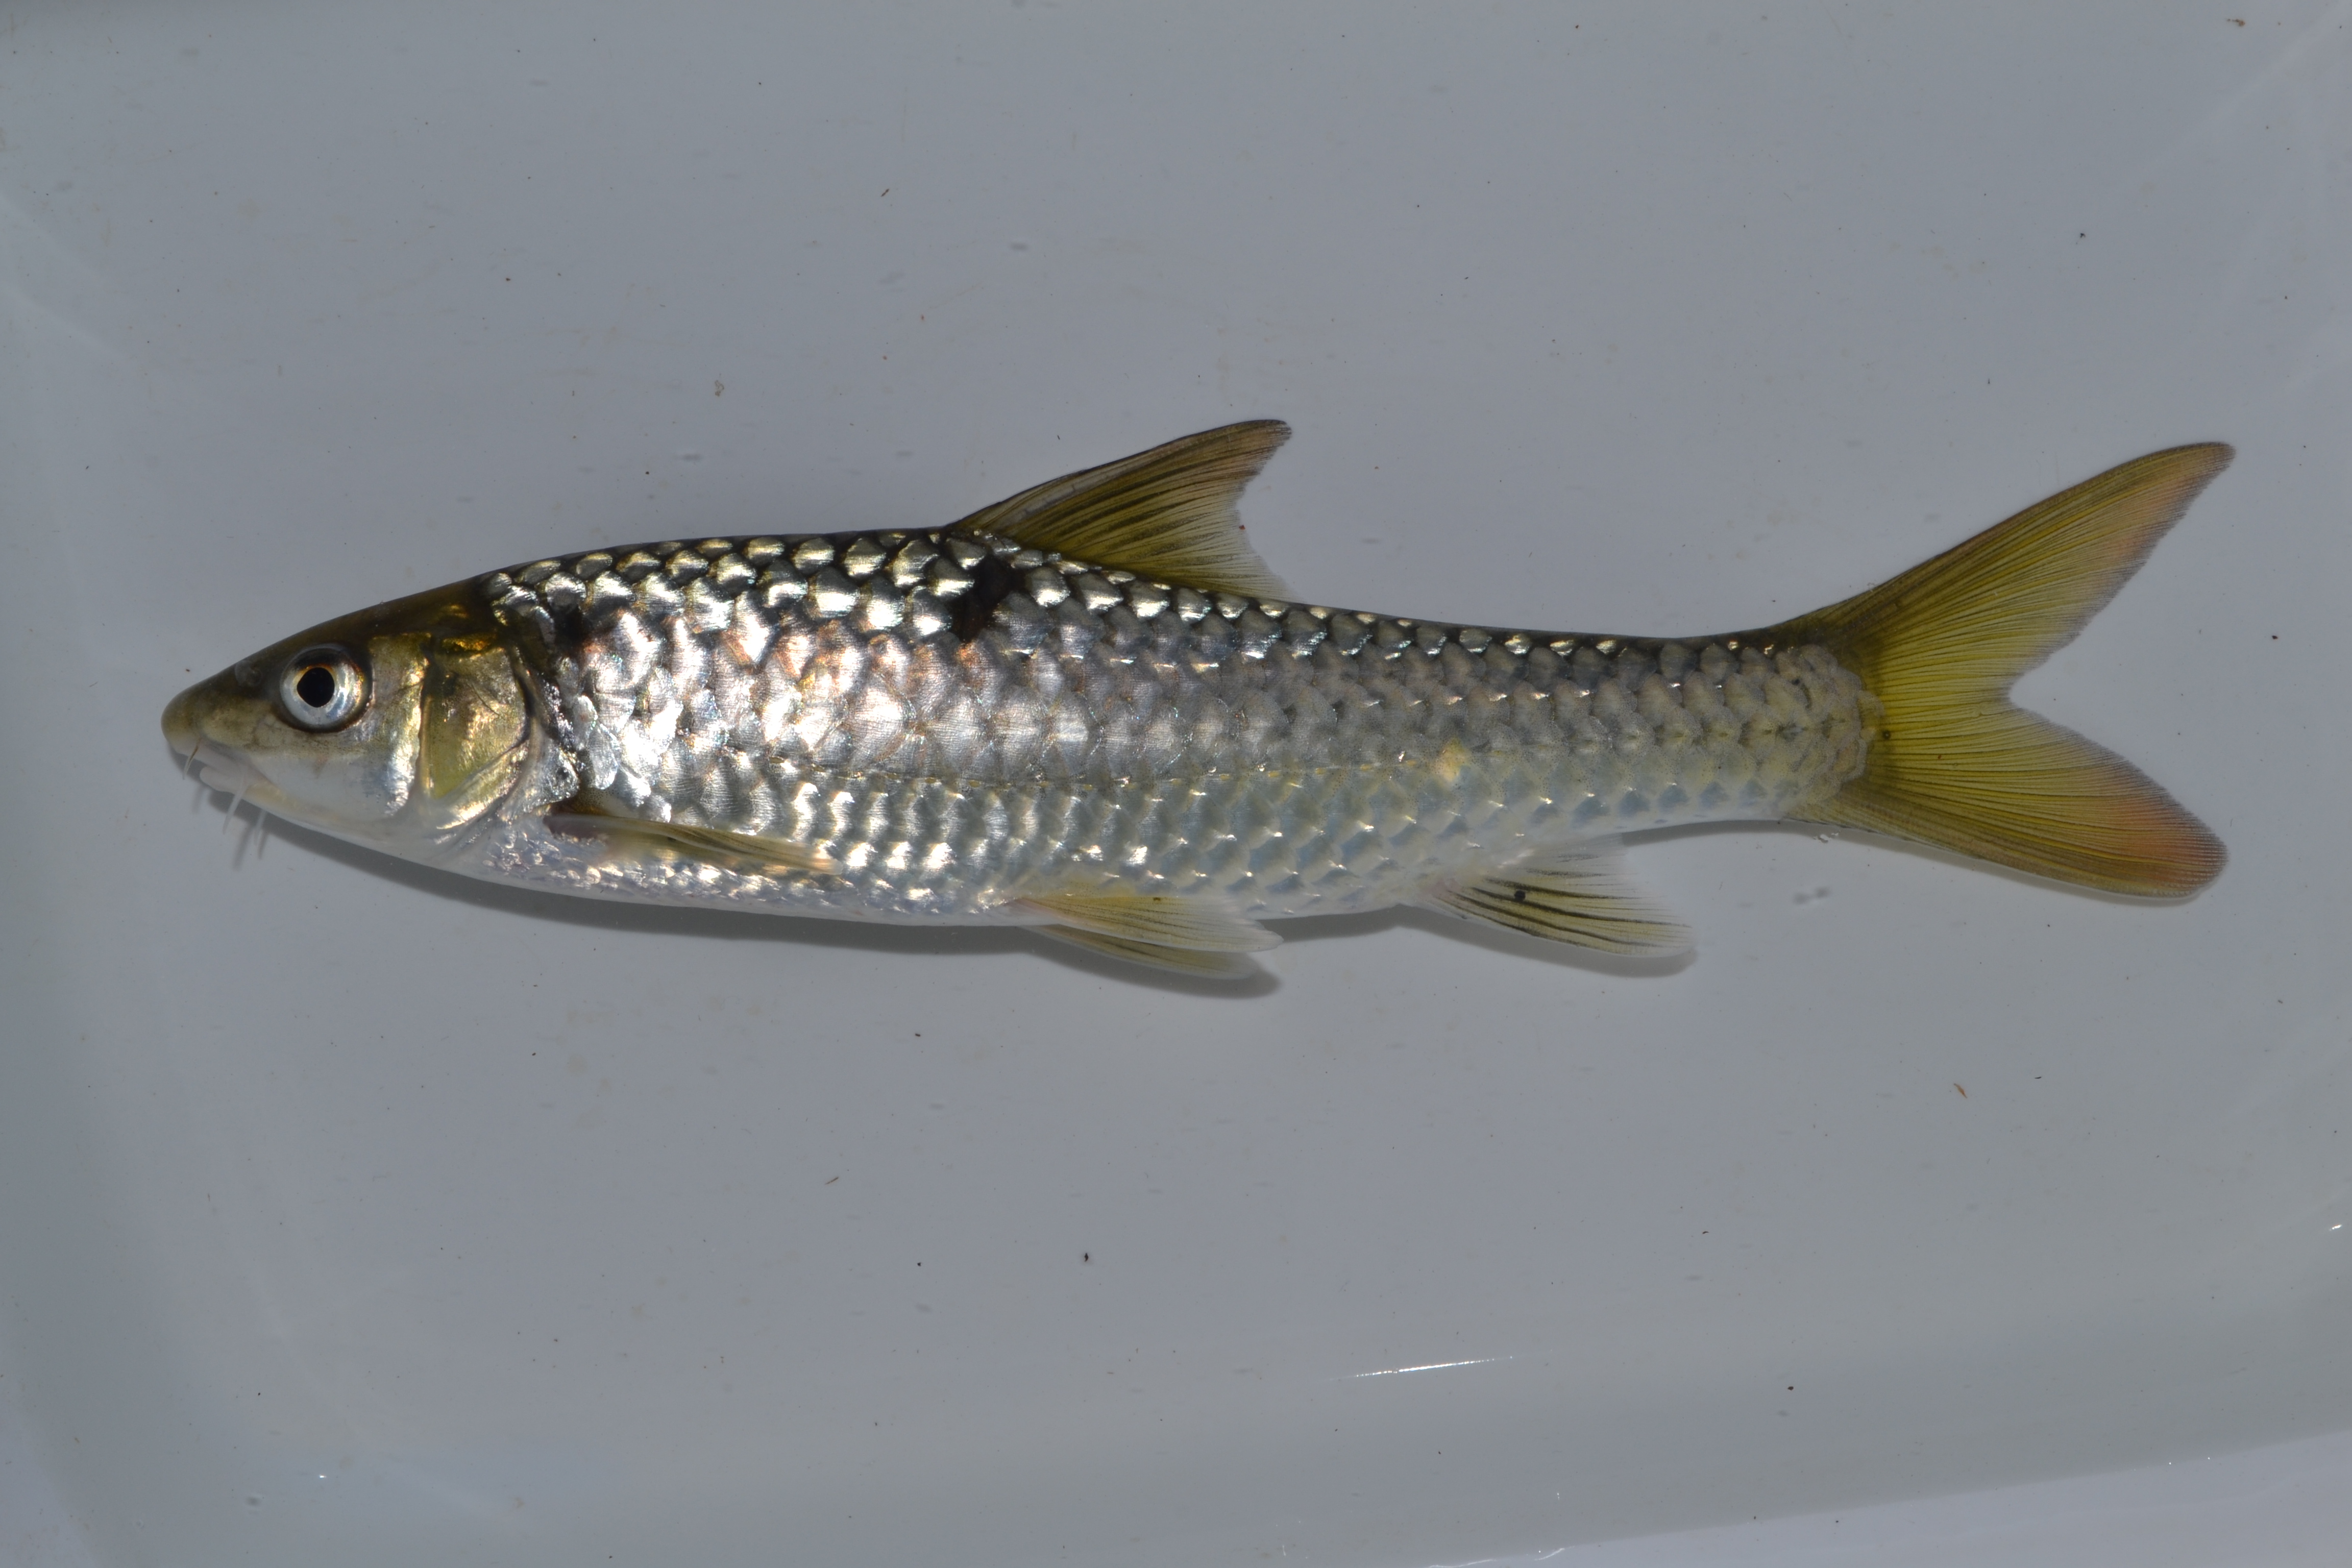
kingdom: Animalia
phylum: Chordata
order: Cypriniformes
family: Cyprinidae
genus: Labeobarbus
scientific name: Labeobarbus marequensis
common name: Largescale yellowfish
